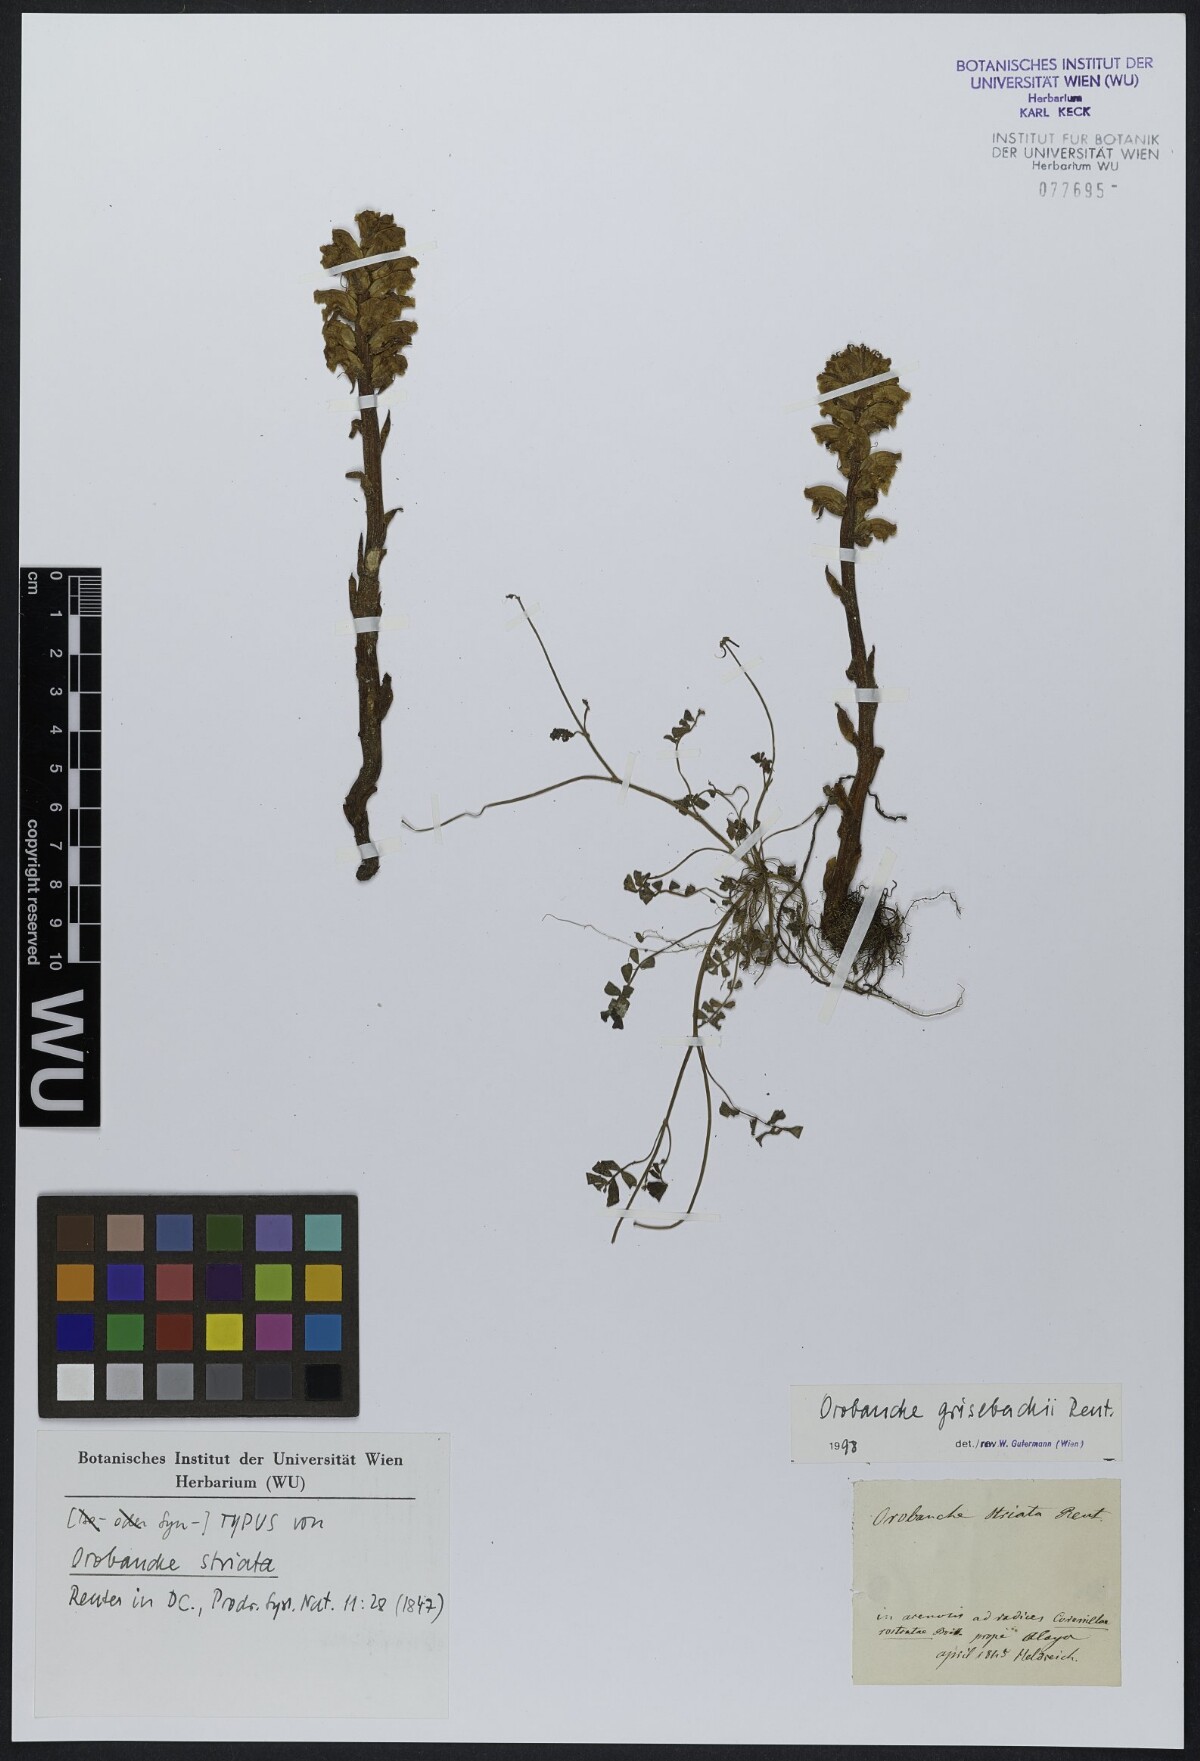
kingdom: Plantae
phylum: Tracheophyta
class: Magnoliopsida
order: Lamiales
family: Orobanchaceae
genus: Orobanche
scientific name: Orobanche grisebachii
